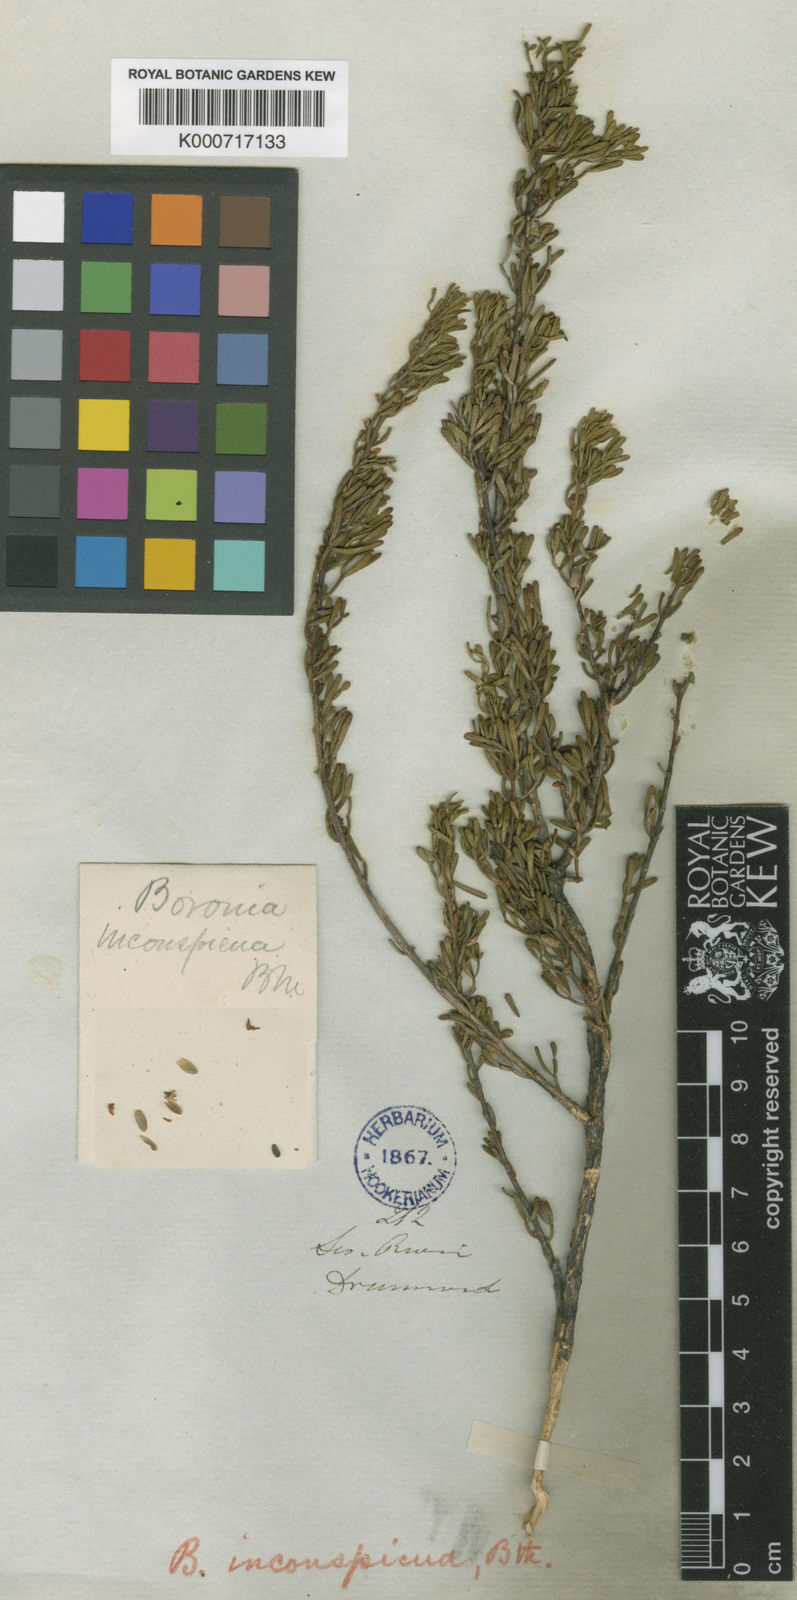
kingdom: Plantae
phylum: Tracheophyta
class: Magnoliopsida
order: Sapindales
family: Rutaceae
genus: Cyanothamnus
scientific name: Cyanothamnus inconspicuus
